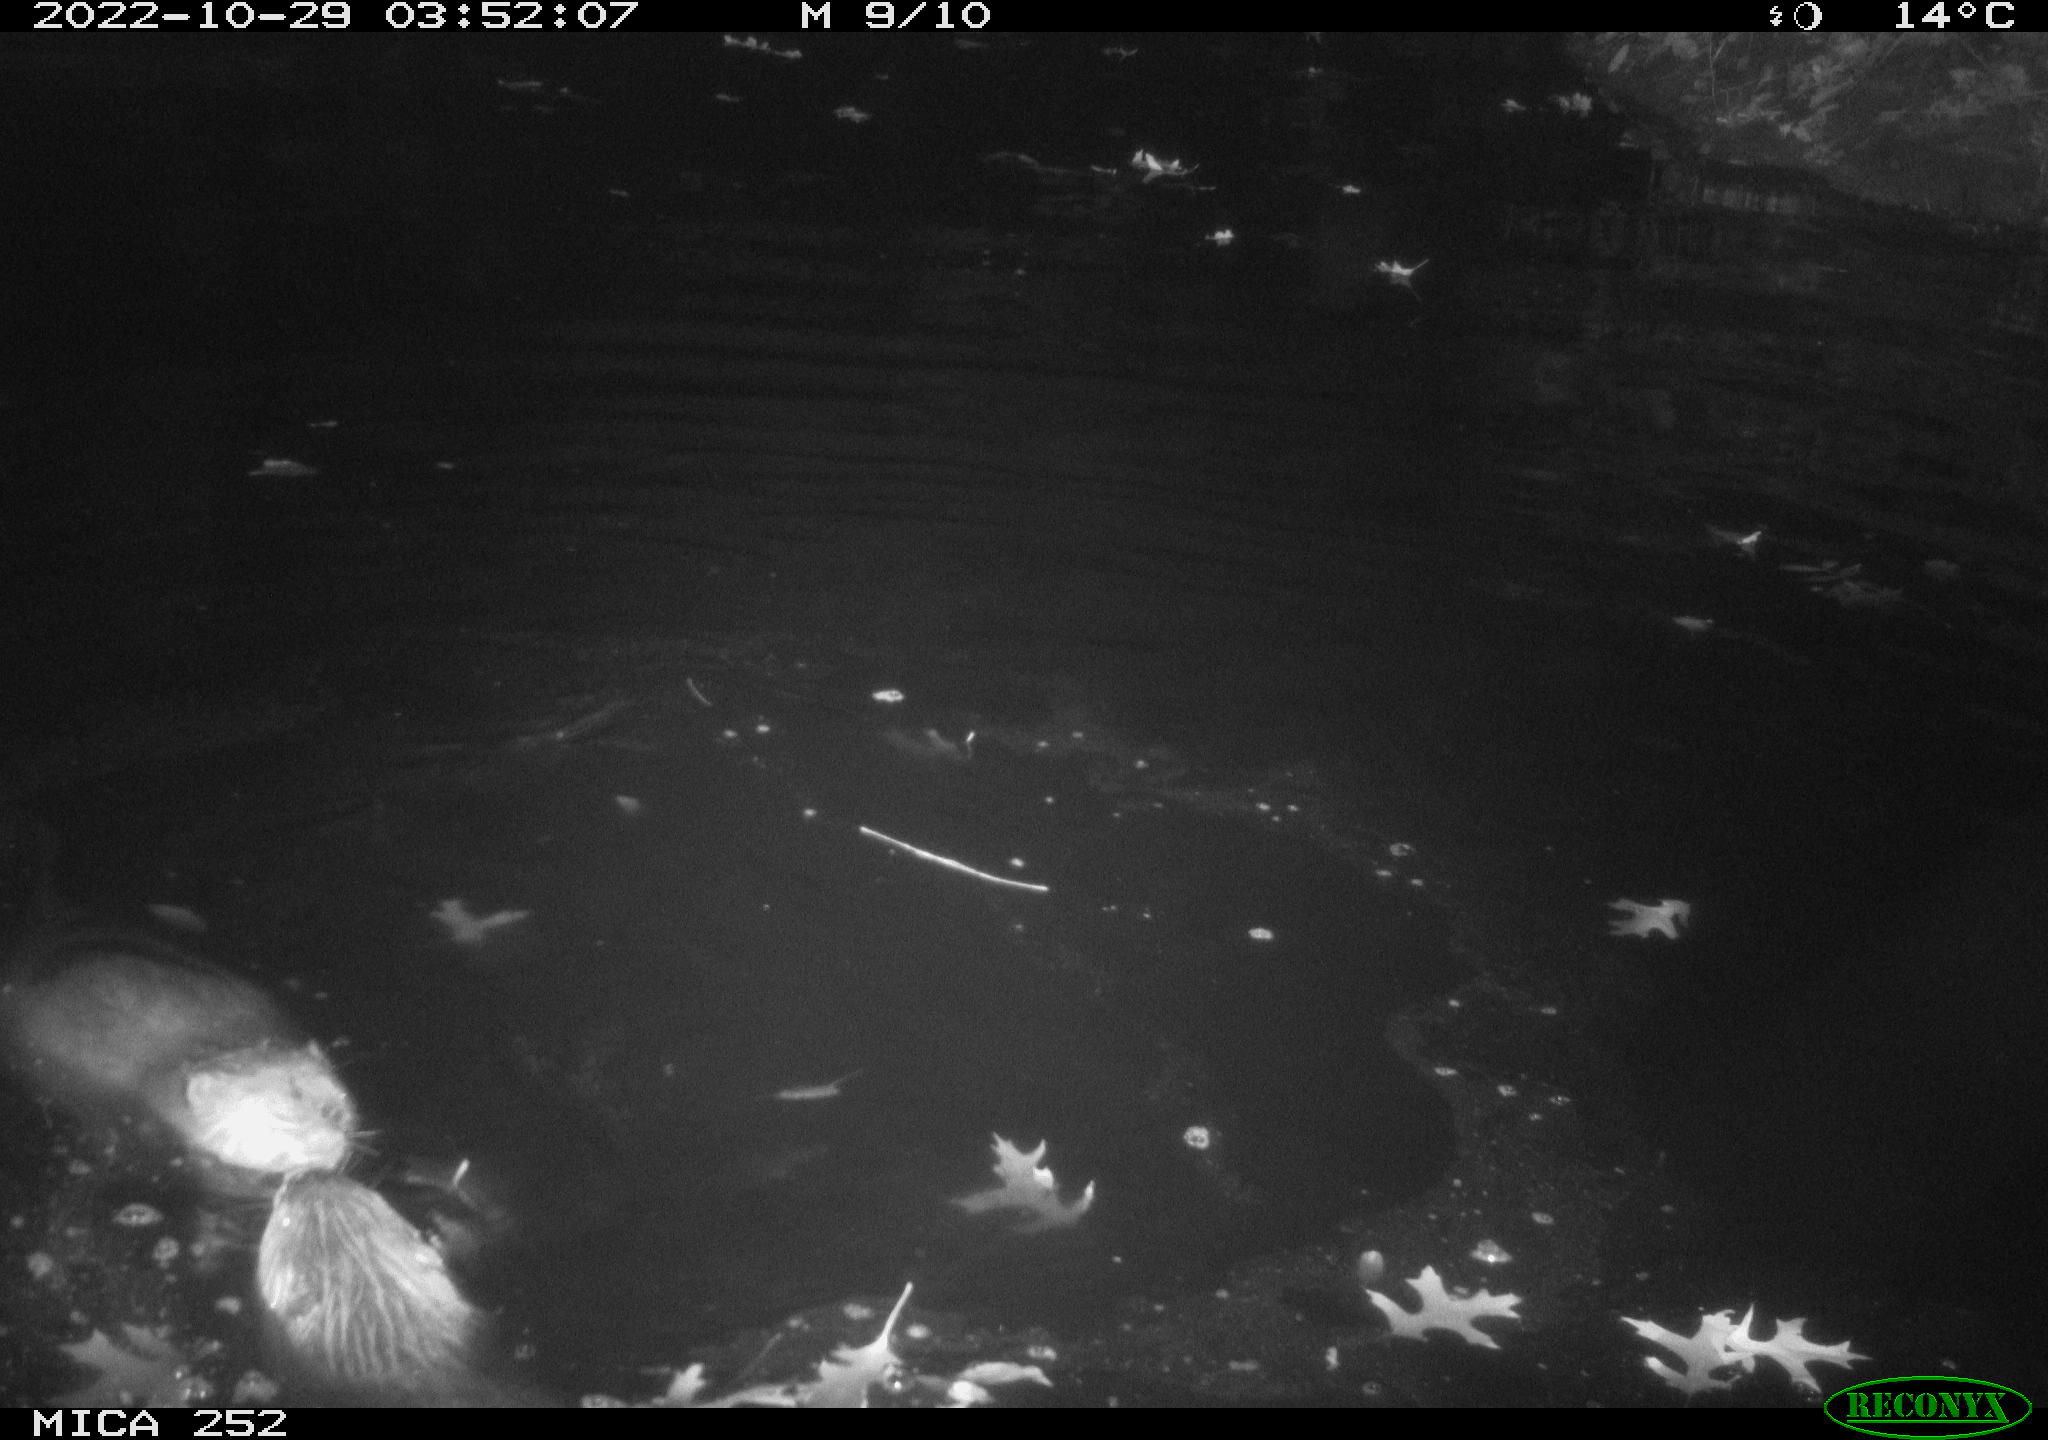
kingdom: Animalia
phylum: Chordata
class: Mammalia
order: Rodentia
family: Castoridae
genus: Castor
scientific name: Castor fiber
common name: Eurasian beaver
